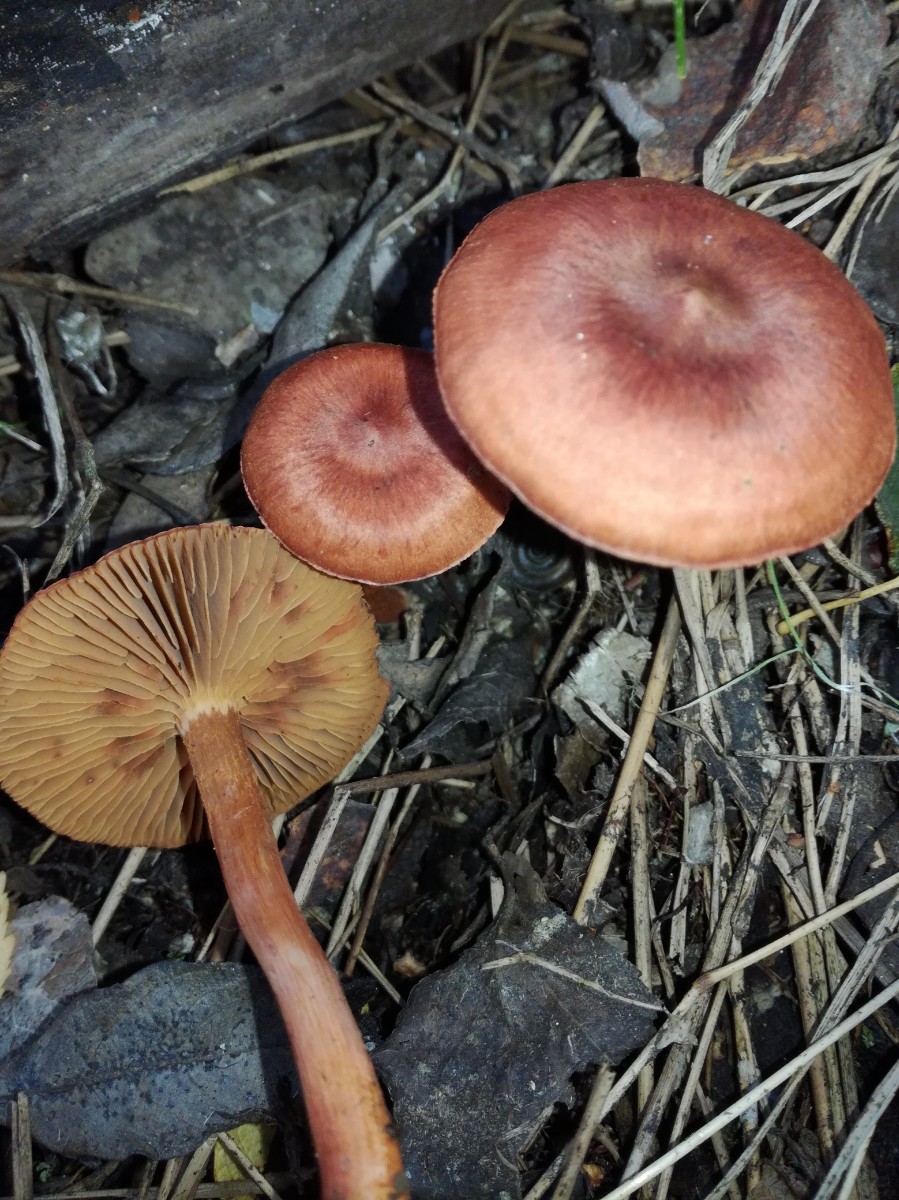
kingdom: Fungi
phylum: Basidiomycota
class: Agaricomycetes
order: Agaricales
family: Cortinariaceae
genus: Cortinarius
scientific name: Cortinarius uliginosus
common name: mose-slørhat
